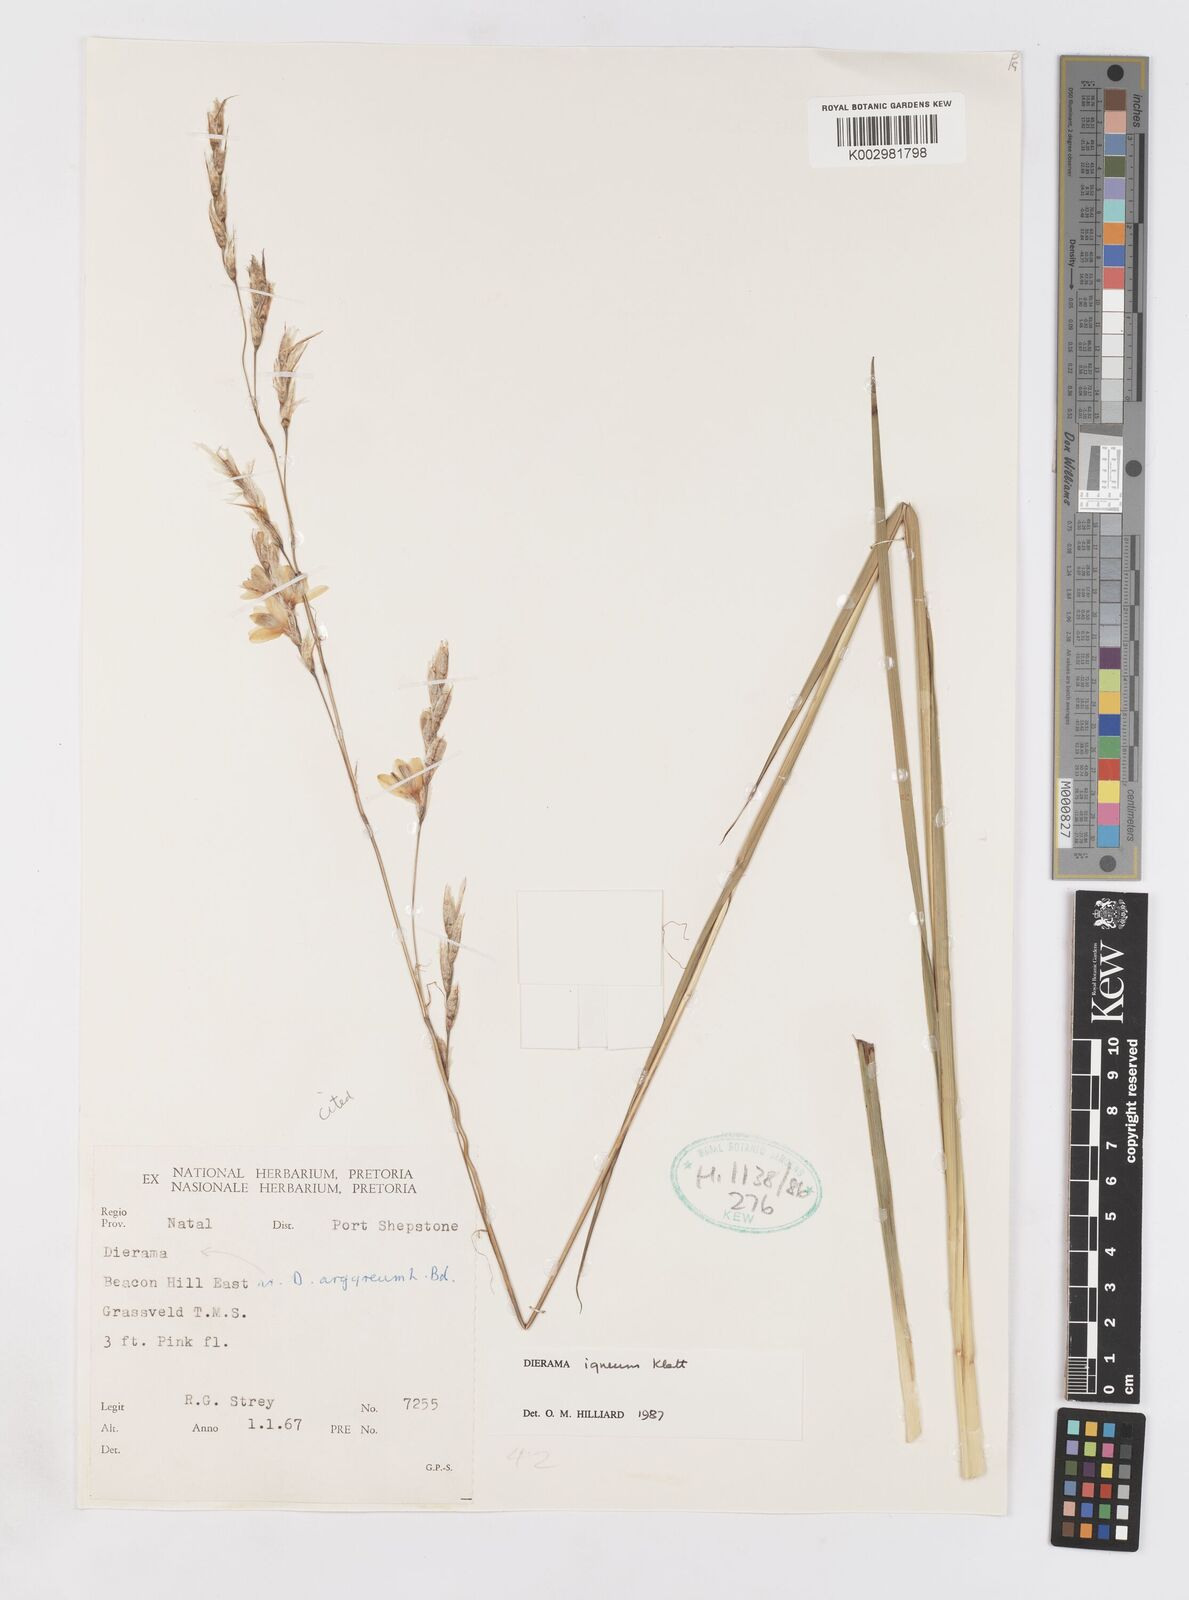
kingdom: Plantae
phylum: Tracheophyta
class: Liliopsida
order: Asparagales
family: Iridaceae
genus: Dierama
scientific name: Dierama igneum
